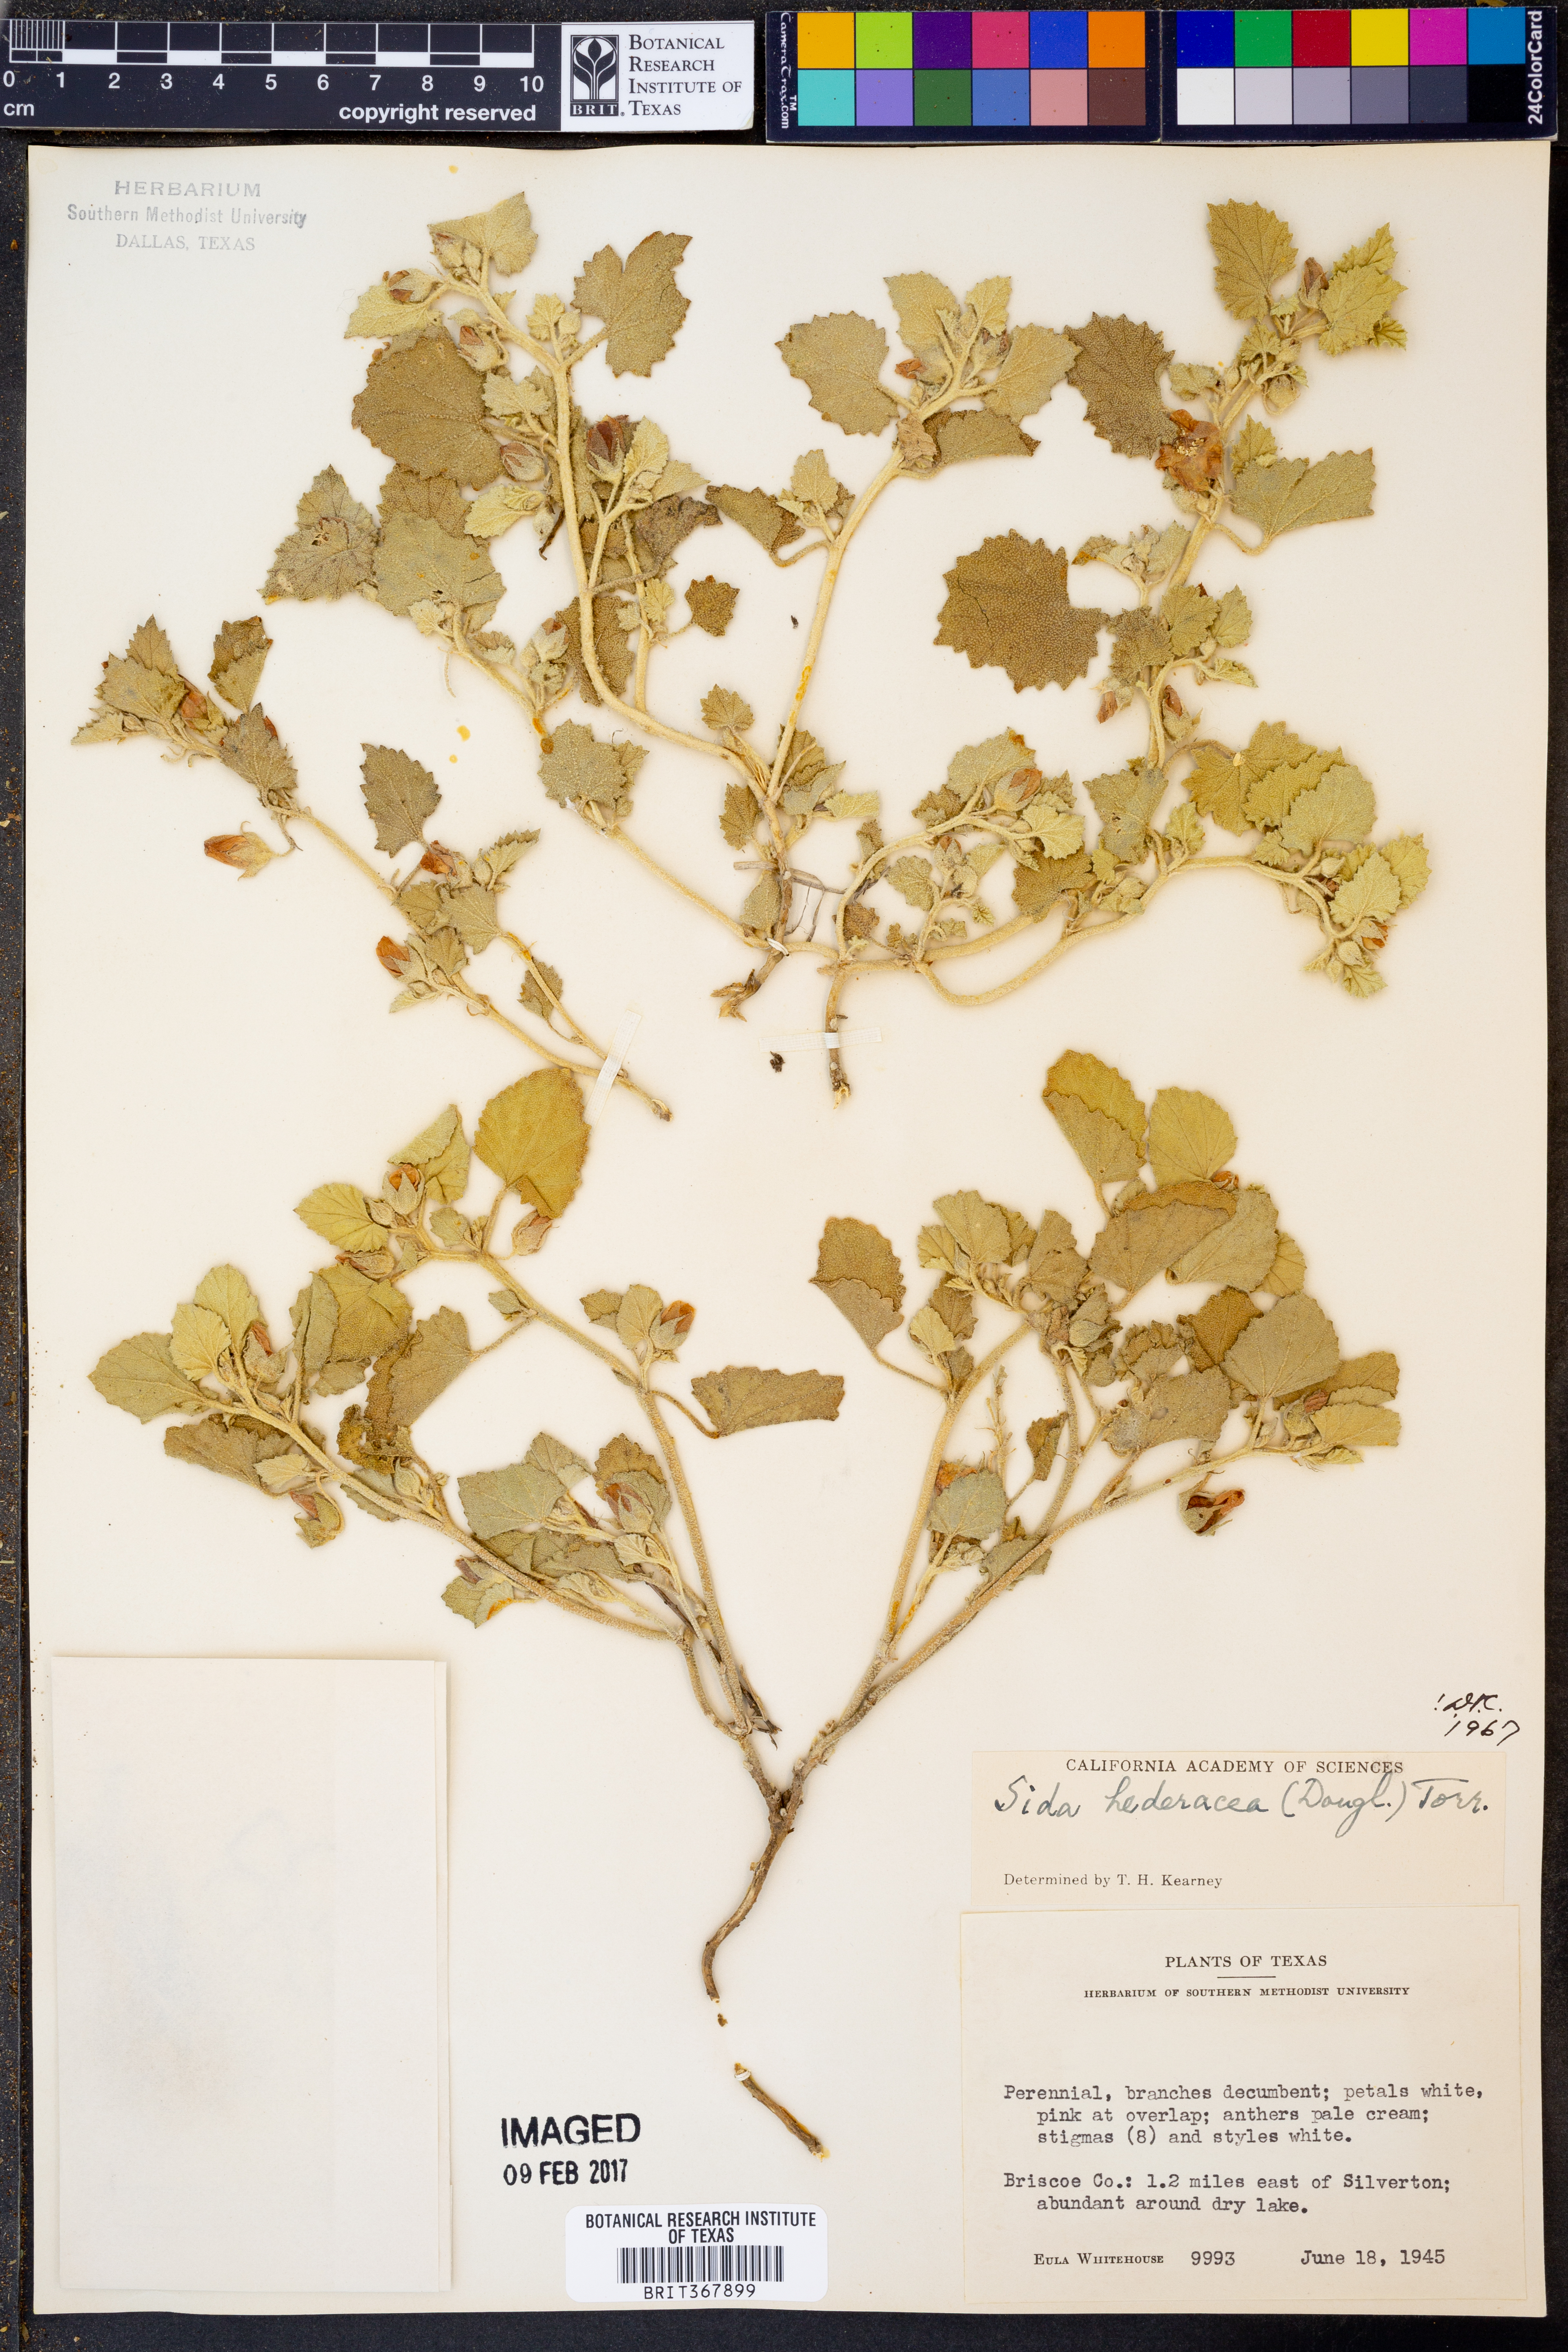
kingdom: Plantae
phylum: Tracheophyta
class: Magnoliopsida
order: Malvales
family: Malvaceae
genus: Malvella
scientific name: Malvella leprosa
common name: Alkali-mallow
